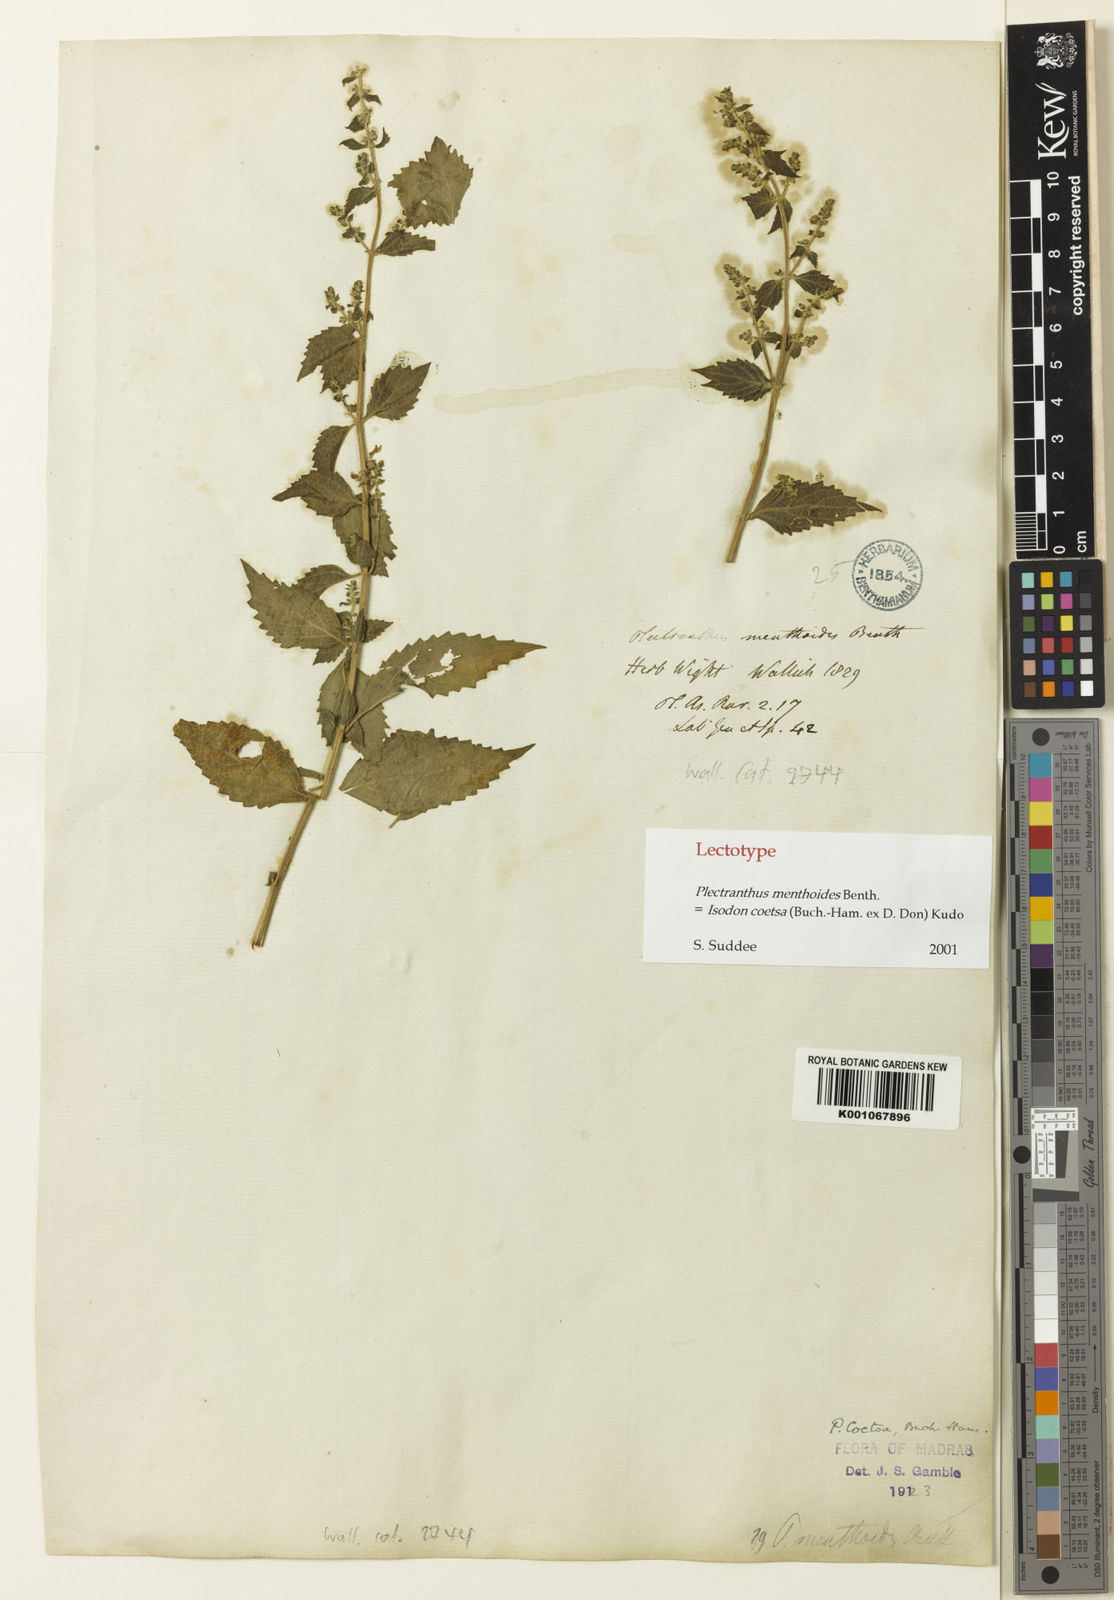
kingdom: Plantae
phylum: Tracheophyta
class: Magnoliopsida
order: Lamiales
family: Lamiaceae
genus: Isodon
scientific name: Isodon
